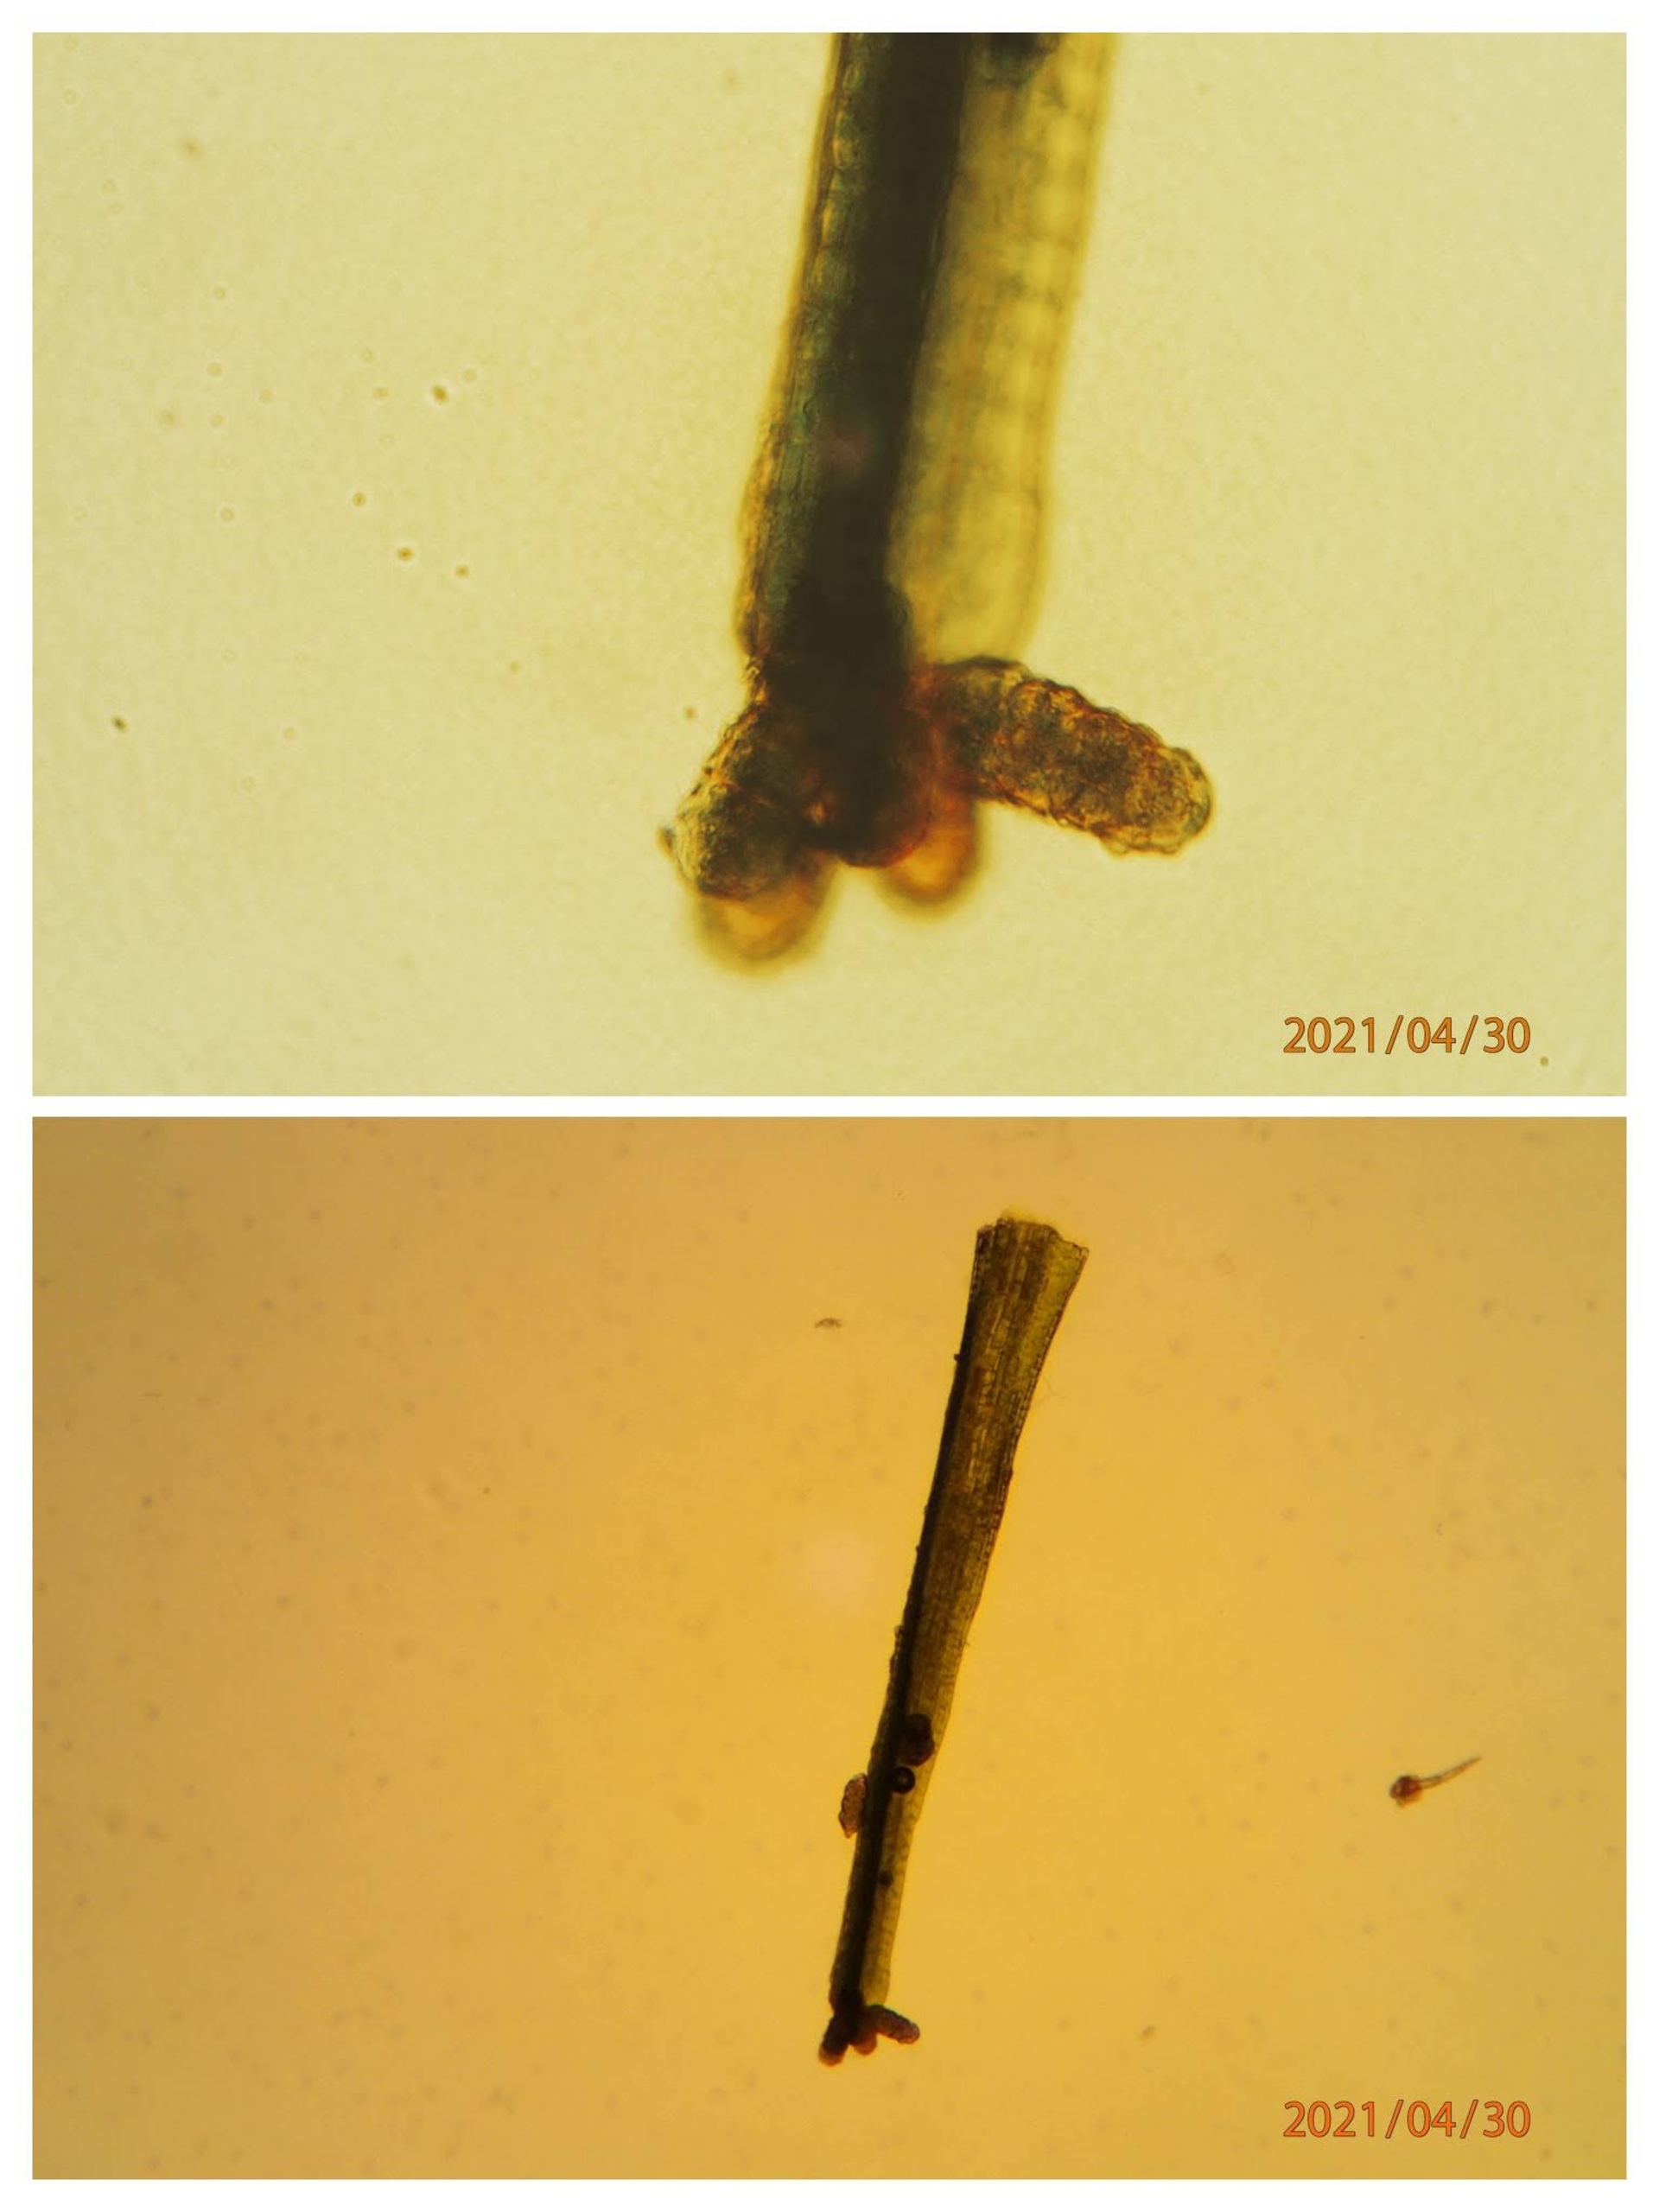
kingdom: Plantae
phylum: Bryophyta
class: Bryopsida
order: Dicranales
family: Dicranaceae
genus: Orthodicranum
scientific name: Orthodicranum tauricum
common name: Skør tyndvinge
